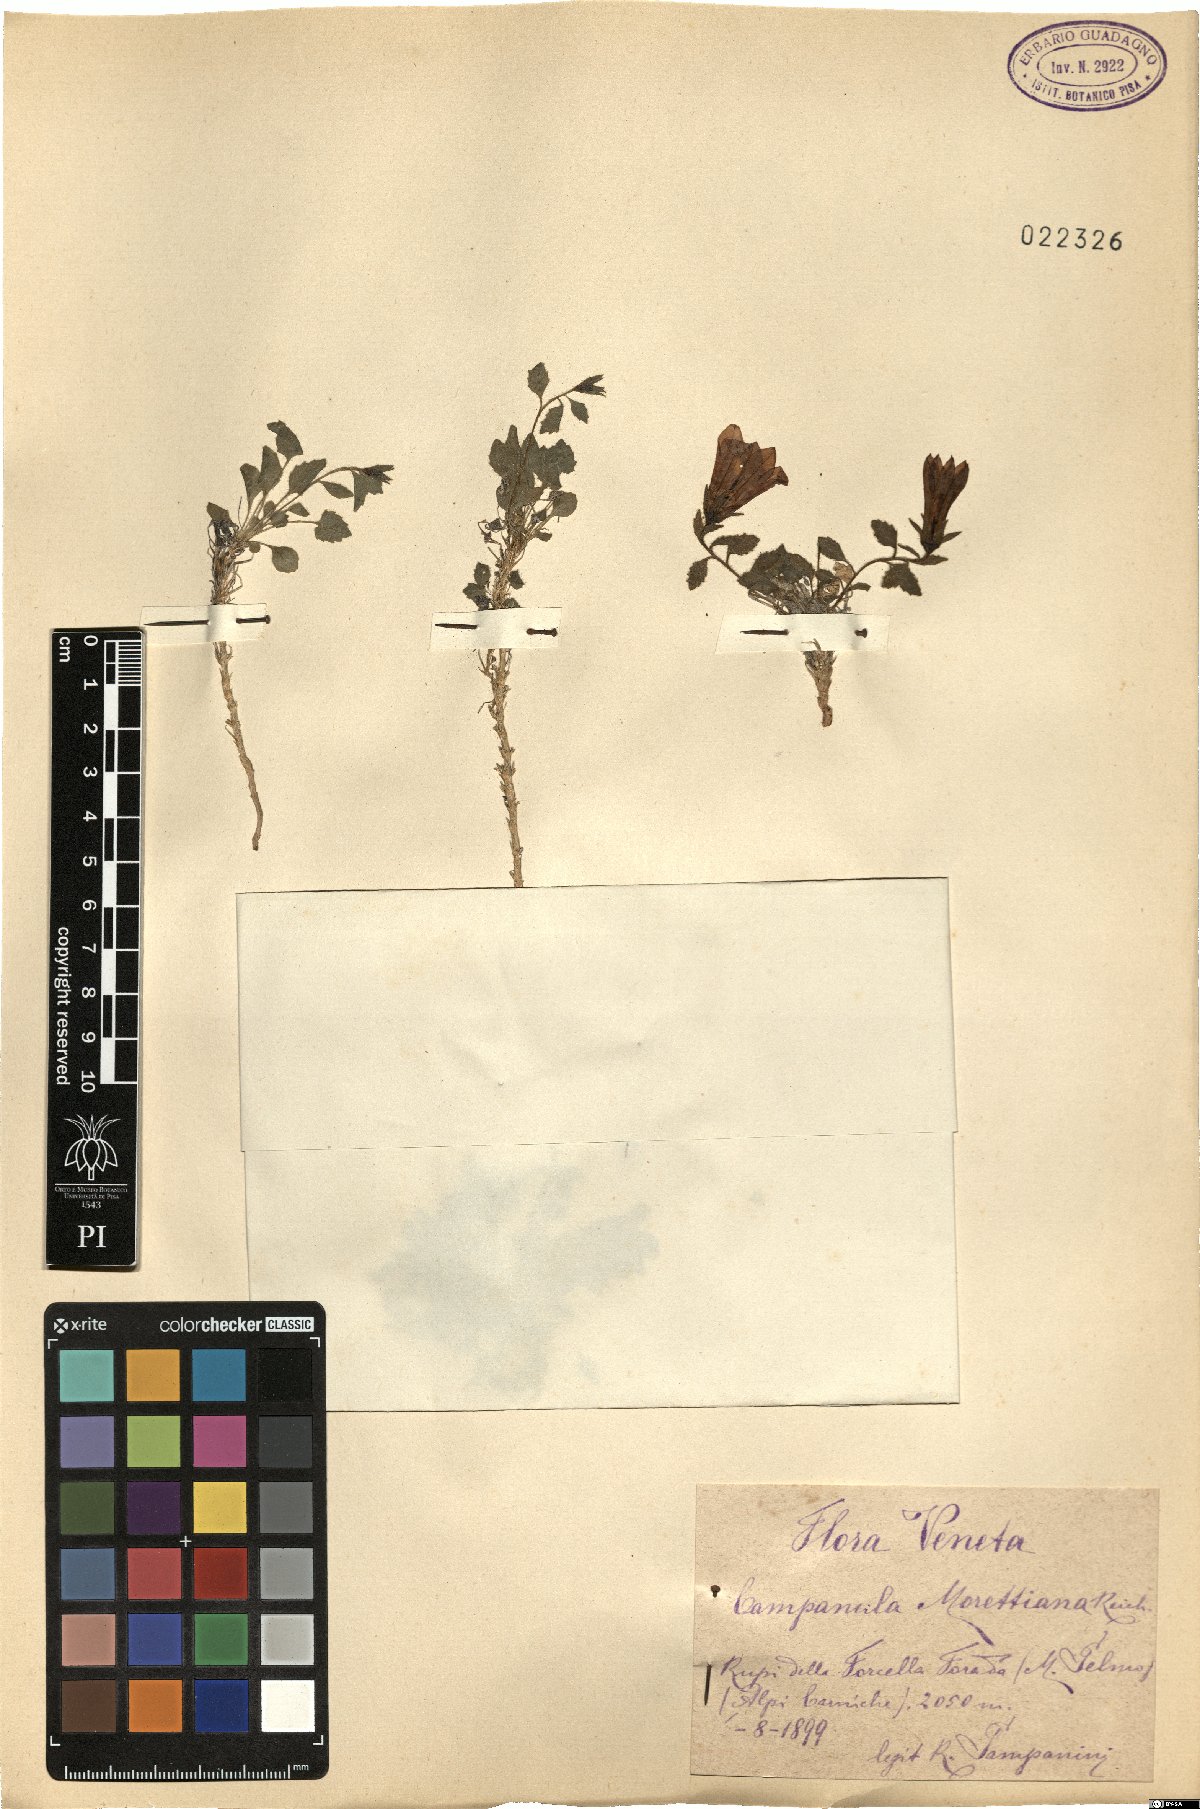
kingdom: Plantae
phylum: Tracheophyta
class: Magnoliopsida
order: Asterales
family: Campanulaceae
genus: Campanula
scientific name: Campanula morettiana
